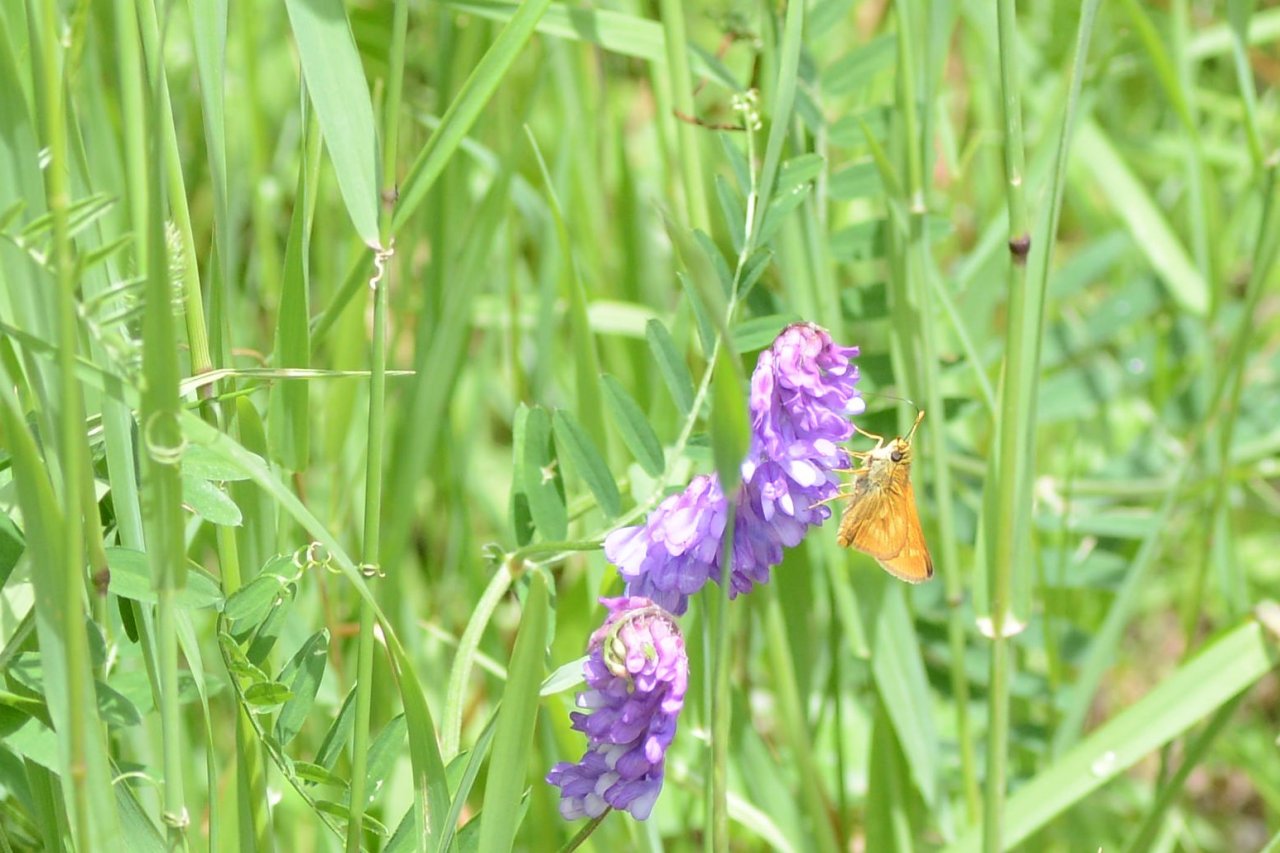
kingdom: Animalia
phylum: Arthropoda
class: Insecta
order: Lepidoptera
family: Hesperiidae
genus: Polites
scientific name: Polites
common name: Long Dash Skipper
